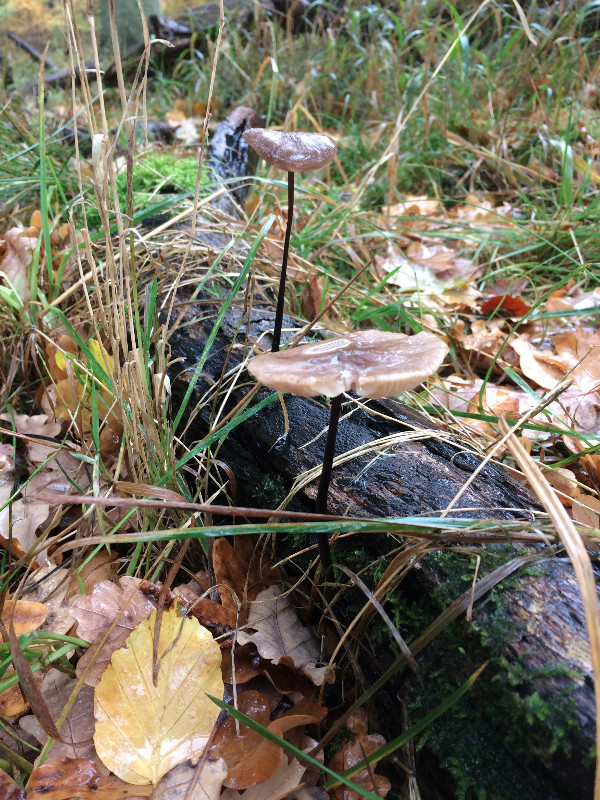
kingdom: Fungi
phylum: Basidiomycota
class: Agaricomycetes
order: Agaricales
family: Omphalotaceae
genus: Mycetinis
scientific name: Mycetinis alliaceus
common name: stor løghat
